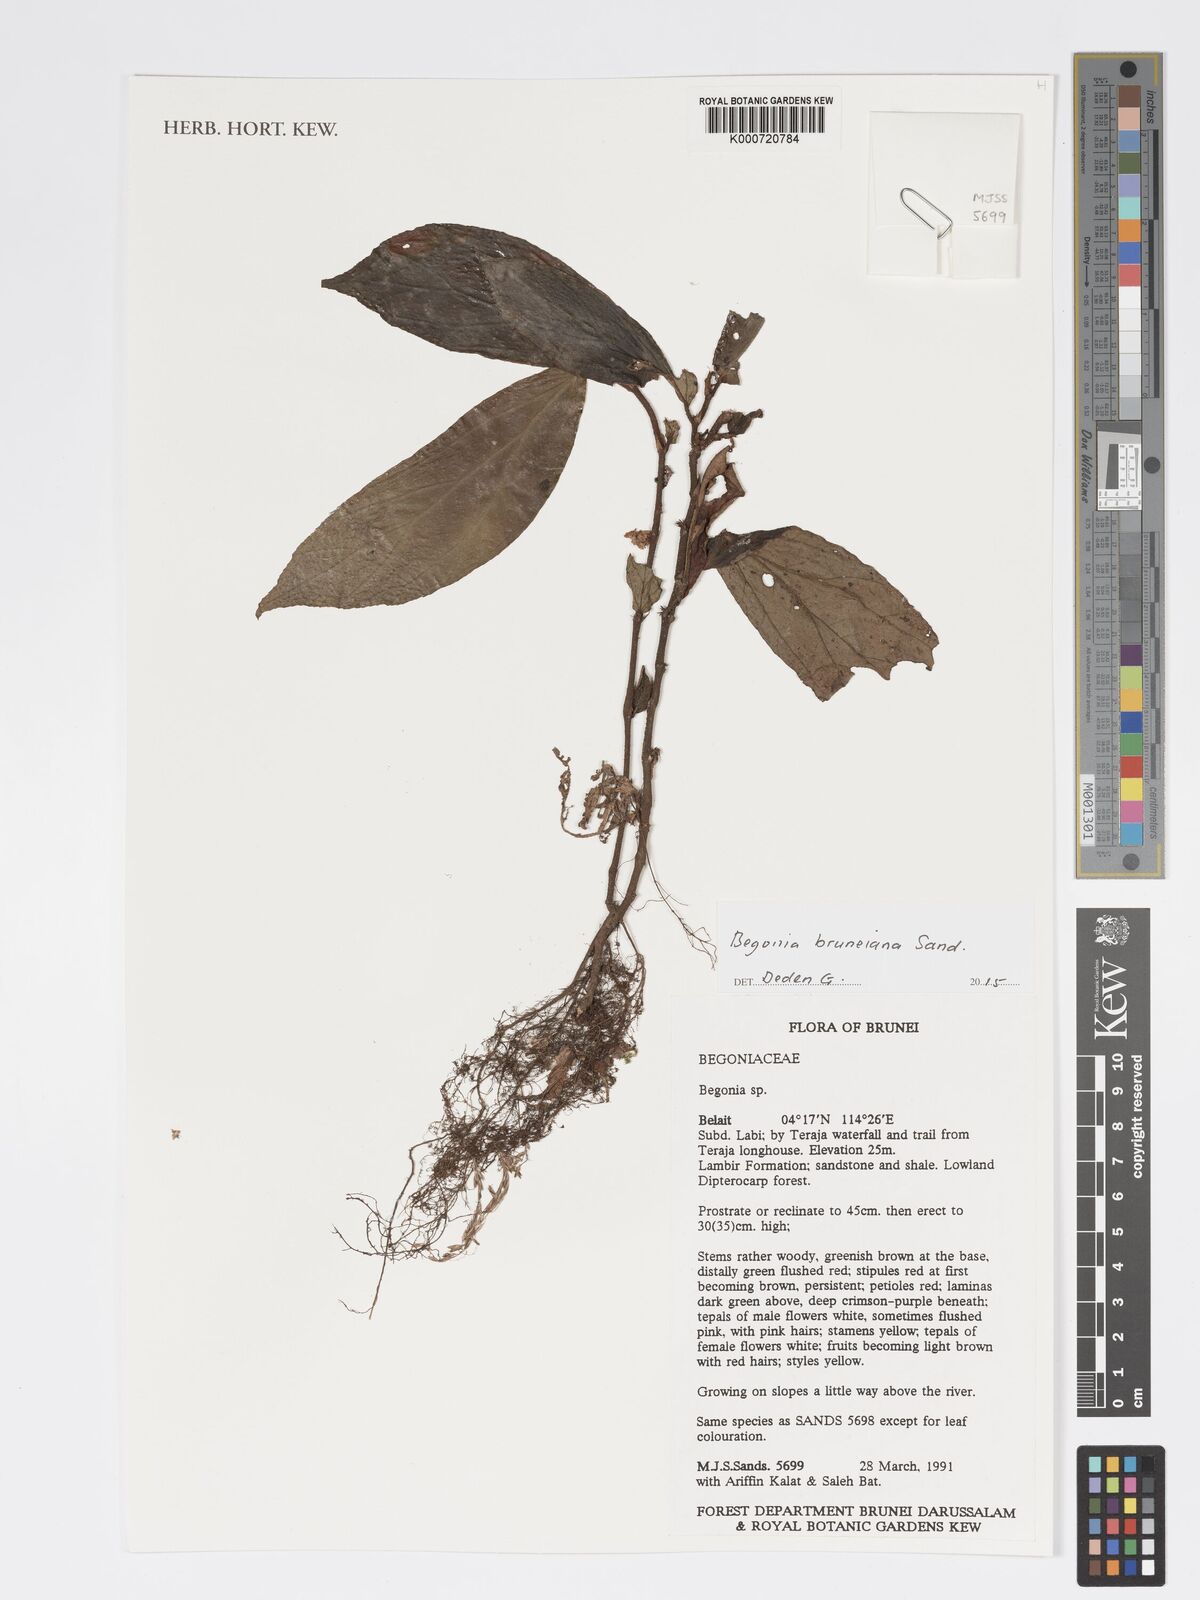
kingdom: Plantae
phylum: Tracheophyta
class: Magnoliopsida
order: Cucurbitales
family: Begoniaceae
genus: Begonia
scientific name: Begonia bruneiana
